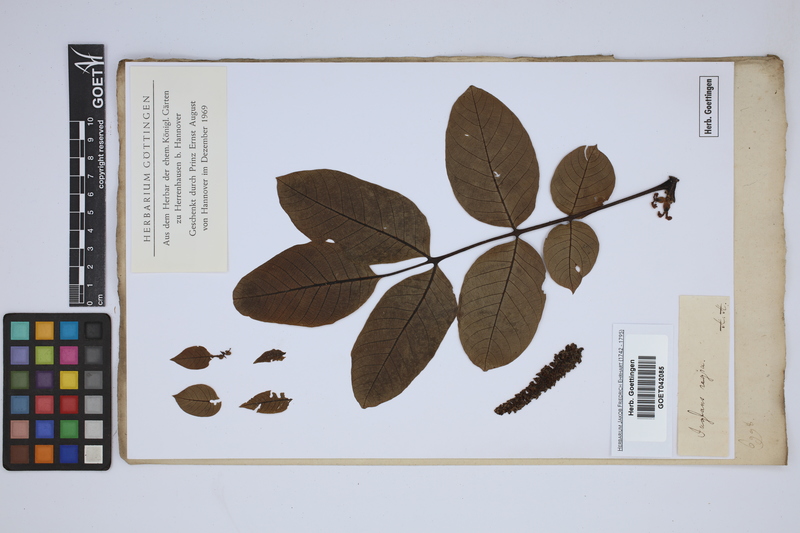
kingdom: Plantae
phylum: Tracheophyta
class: Magnoliopsida
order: Fagales
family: Juglandaceae
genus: Juglans
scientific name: Juglans regia
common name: Walnut
